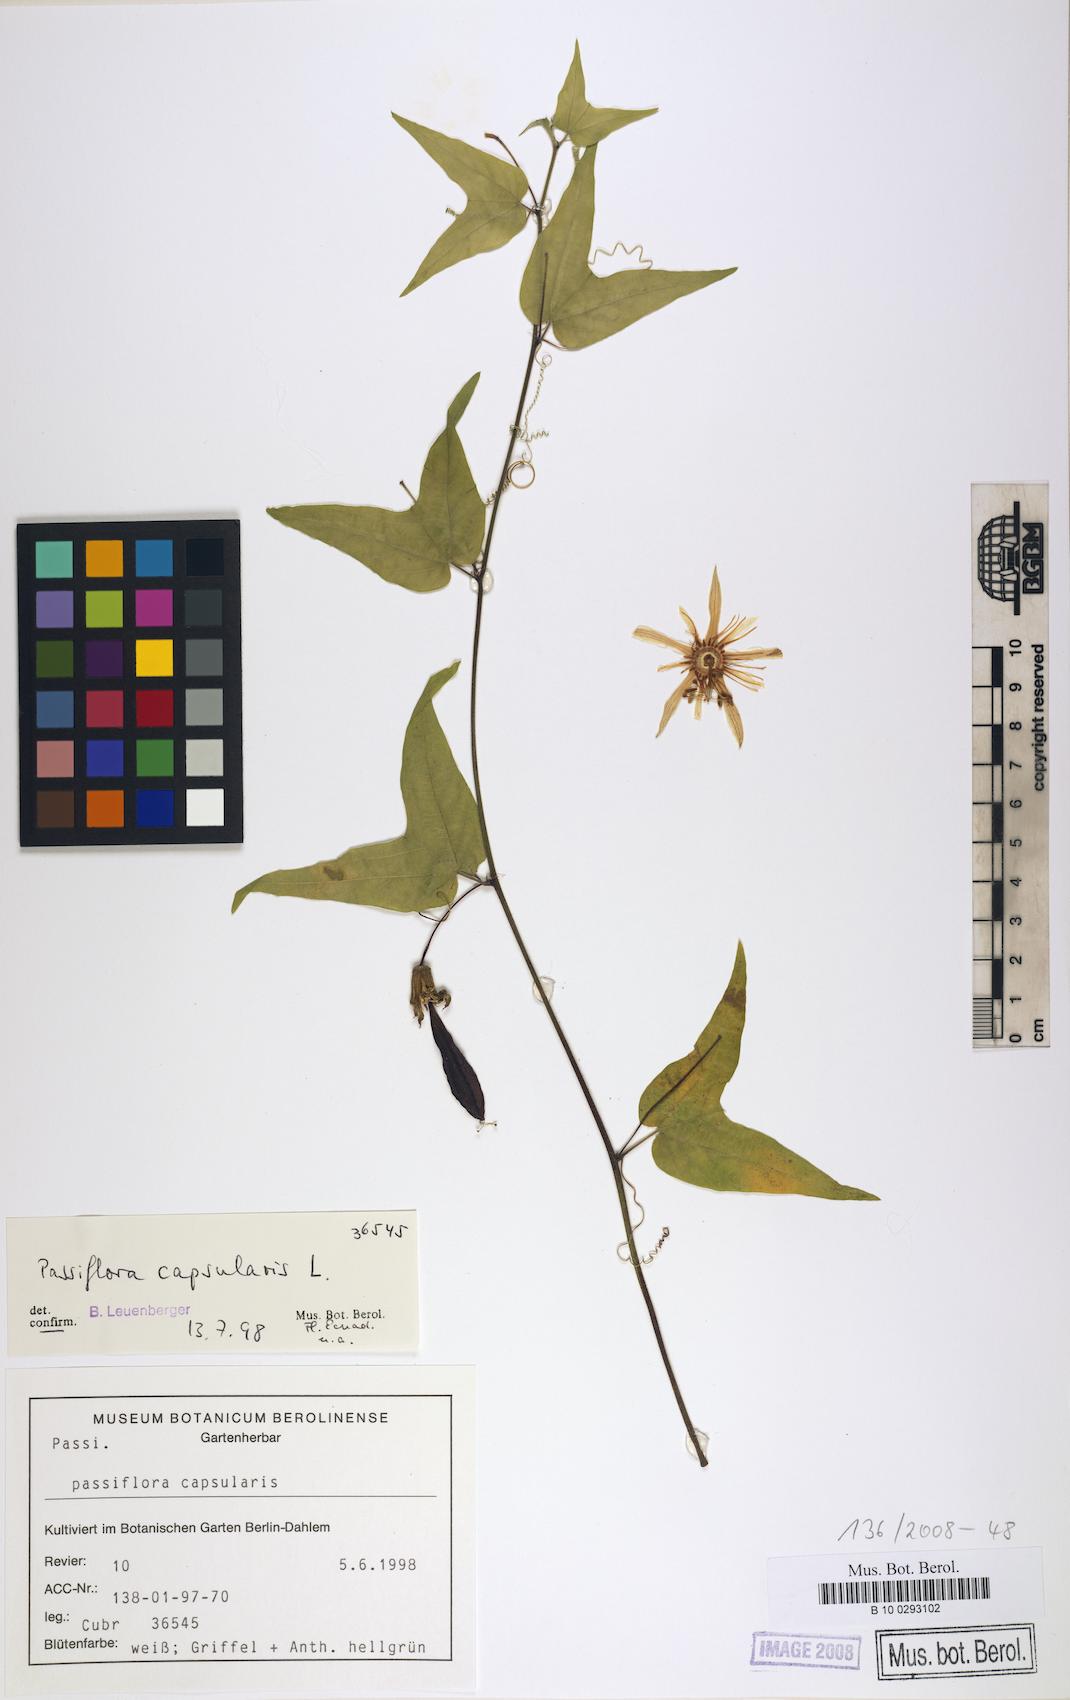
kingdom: Plantae
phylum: Tracheophyta
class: Magnoliopsida
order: Malpighiales
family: Passifloraceae
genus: Passiflora
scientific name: Passiflora capsularis
